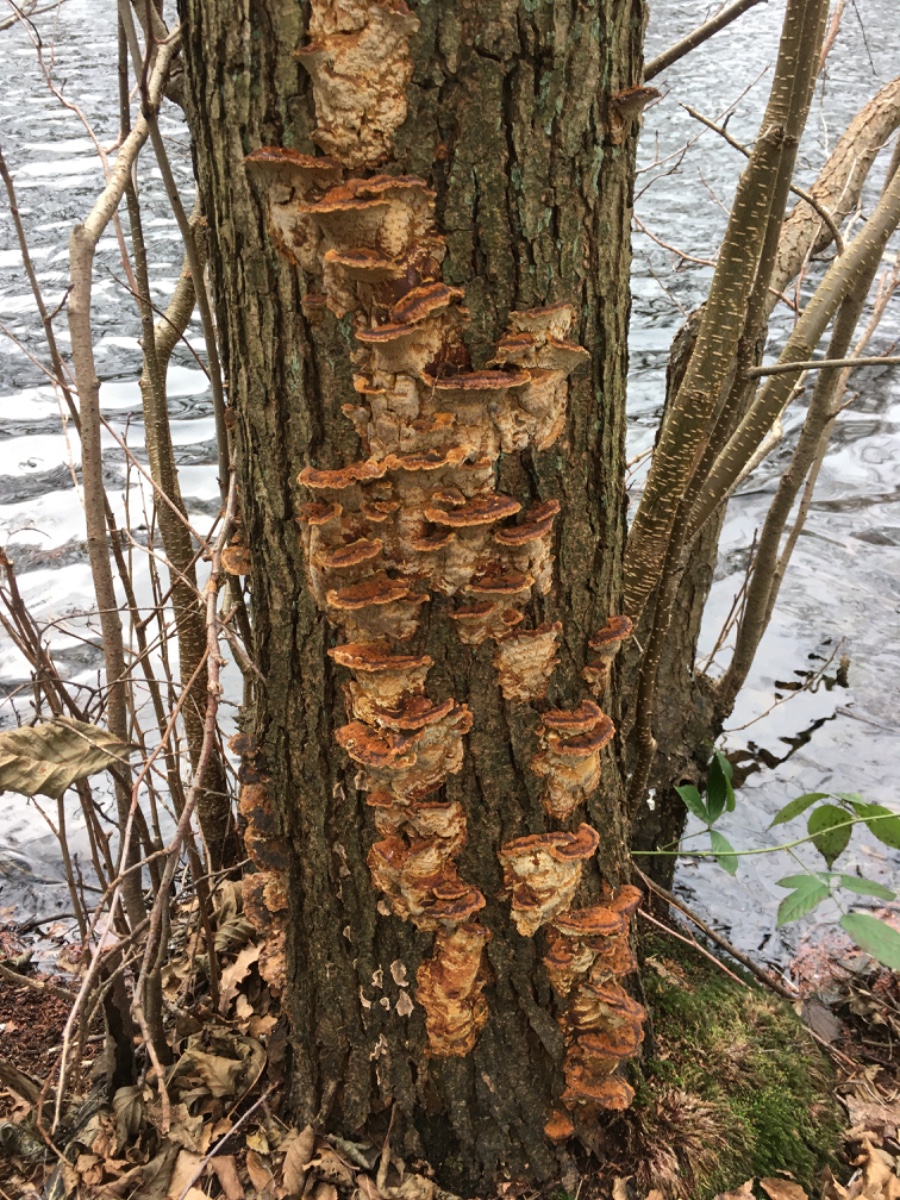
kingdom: Fungi
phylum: Basidiomycota
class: Agaricomycetes
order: Hymenochaetales
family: Hymenochaetaceae
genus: Xanthoporia
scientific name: Xanthoporia radiata
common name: elle-spejlporesvamp
